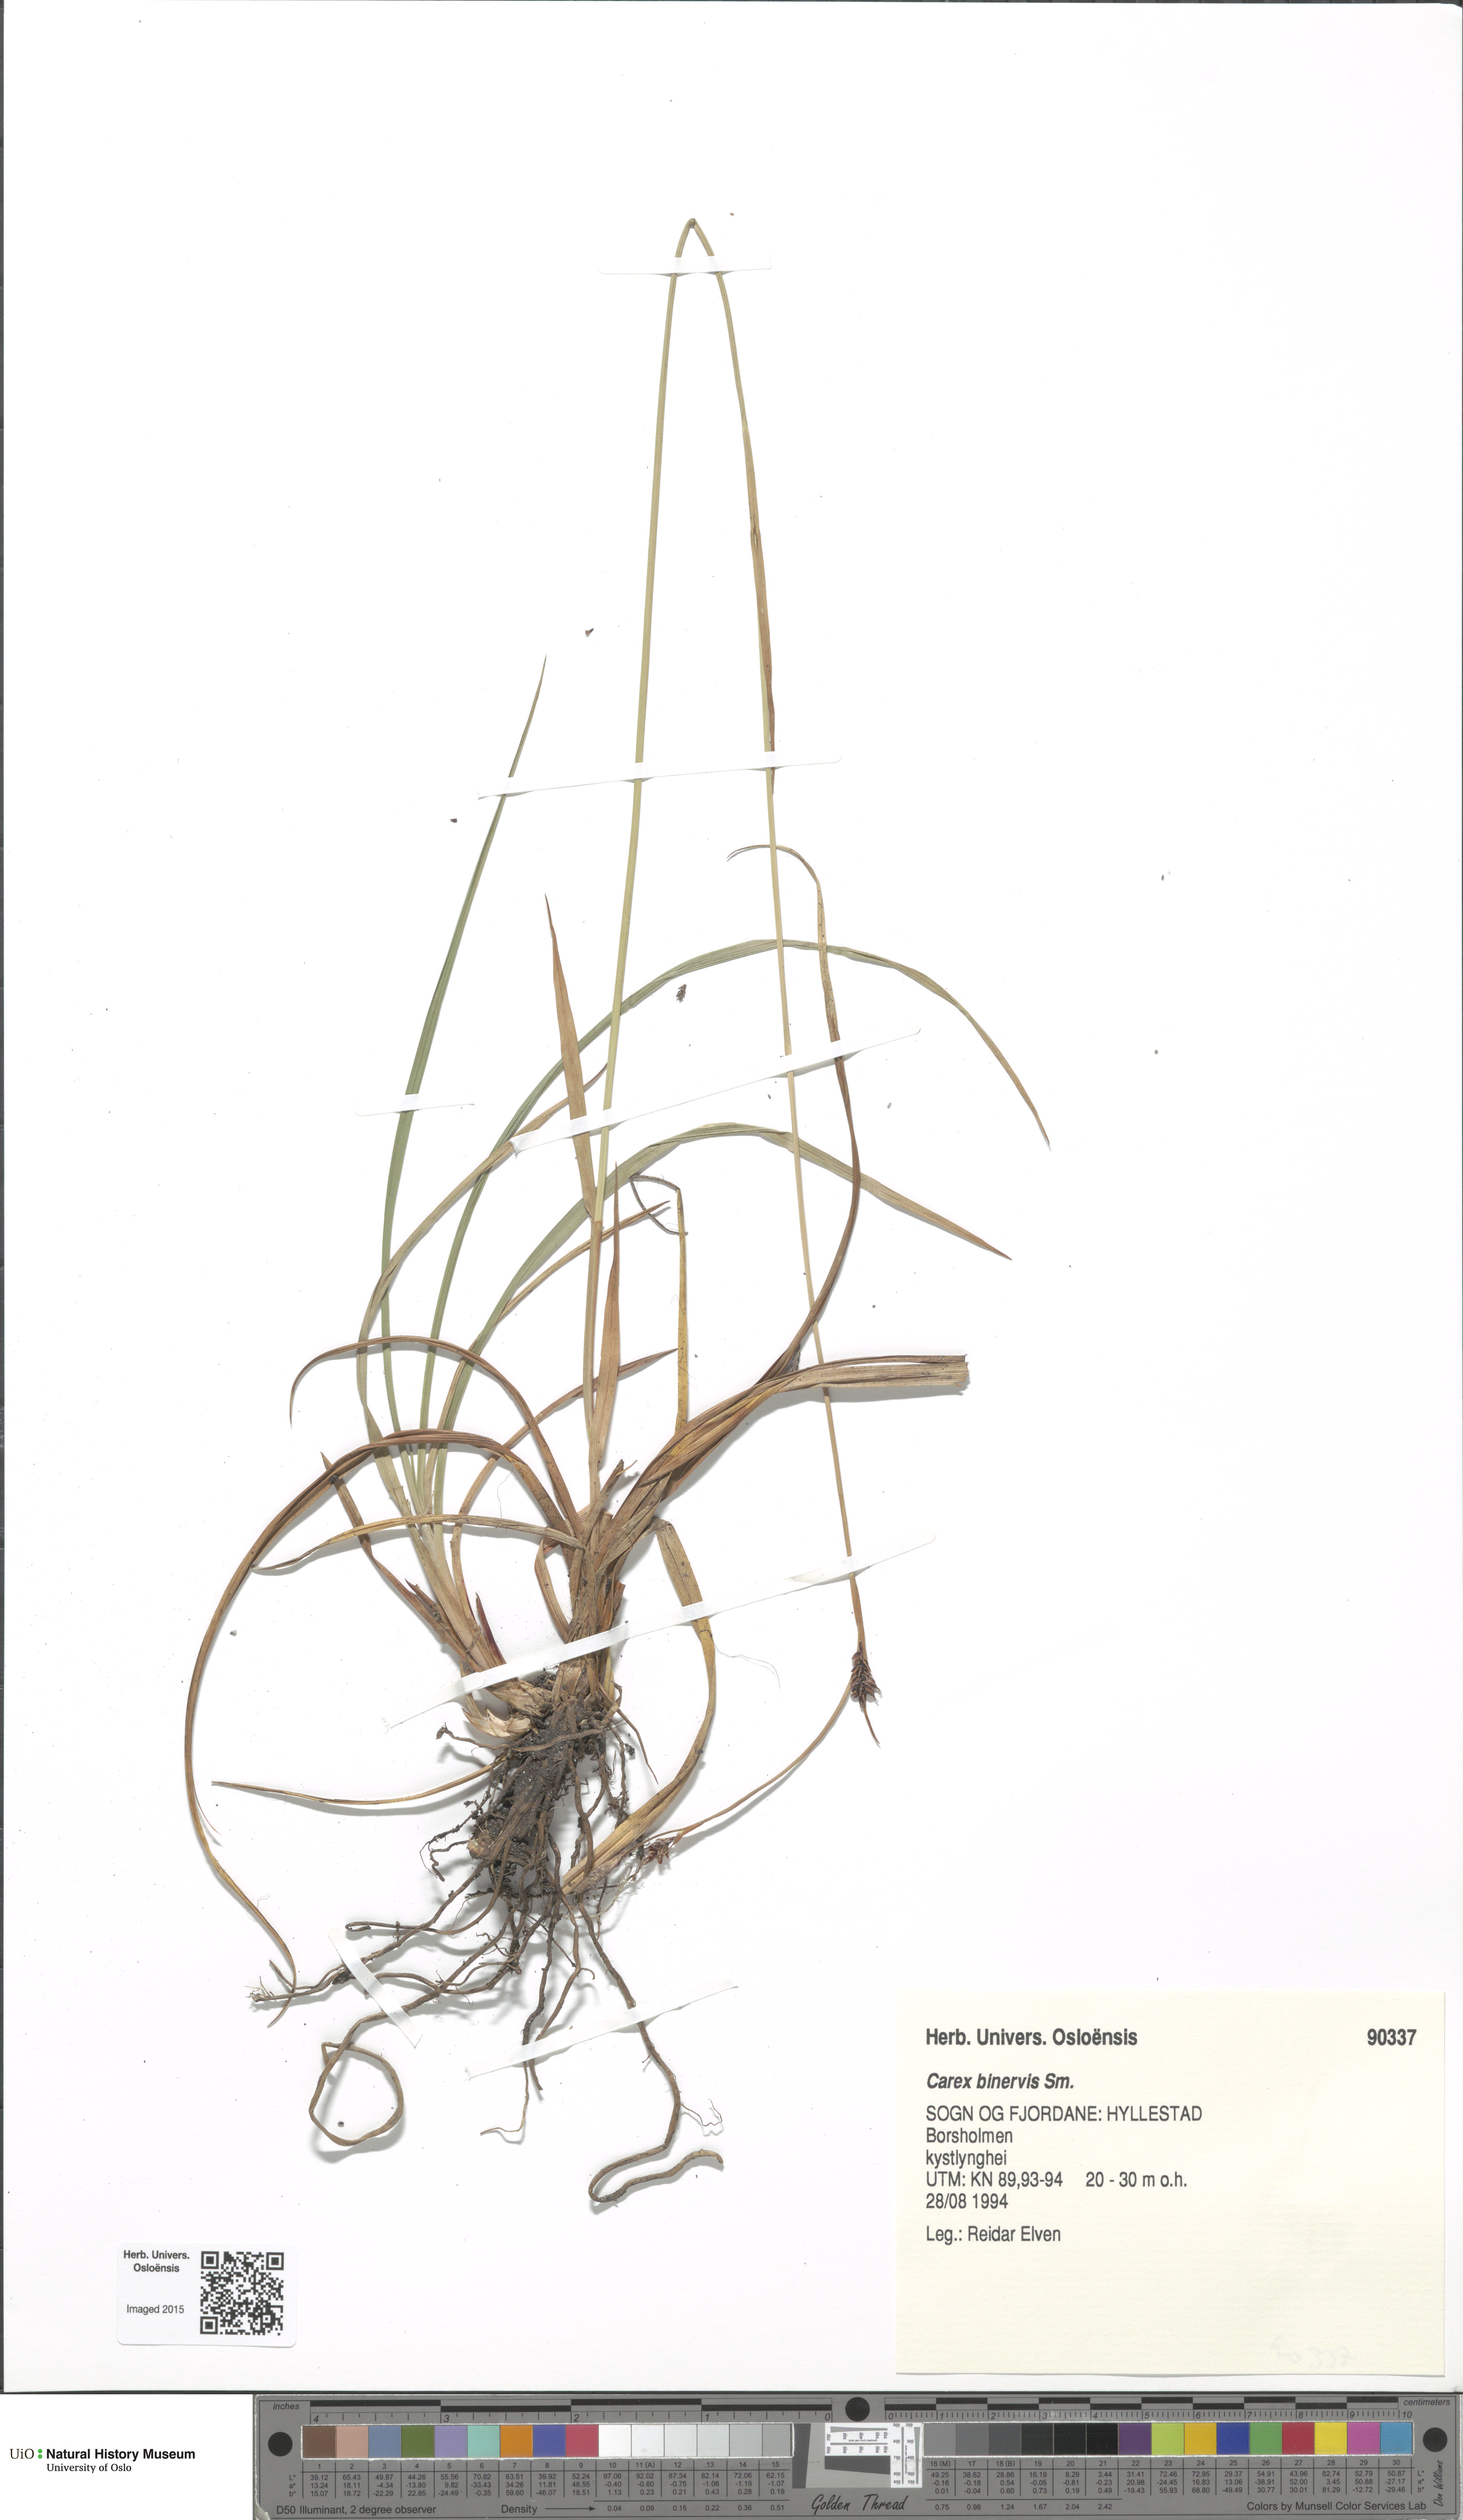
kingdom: Plantae
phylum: Tracheophyta
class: Liliopsida
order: Poales
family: Cyperaceae
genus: Carex
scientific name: Carex binervis
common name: Green-ribbed sedge
